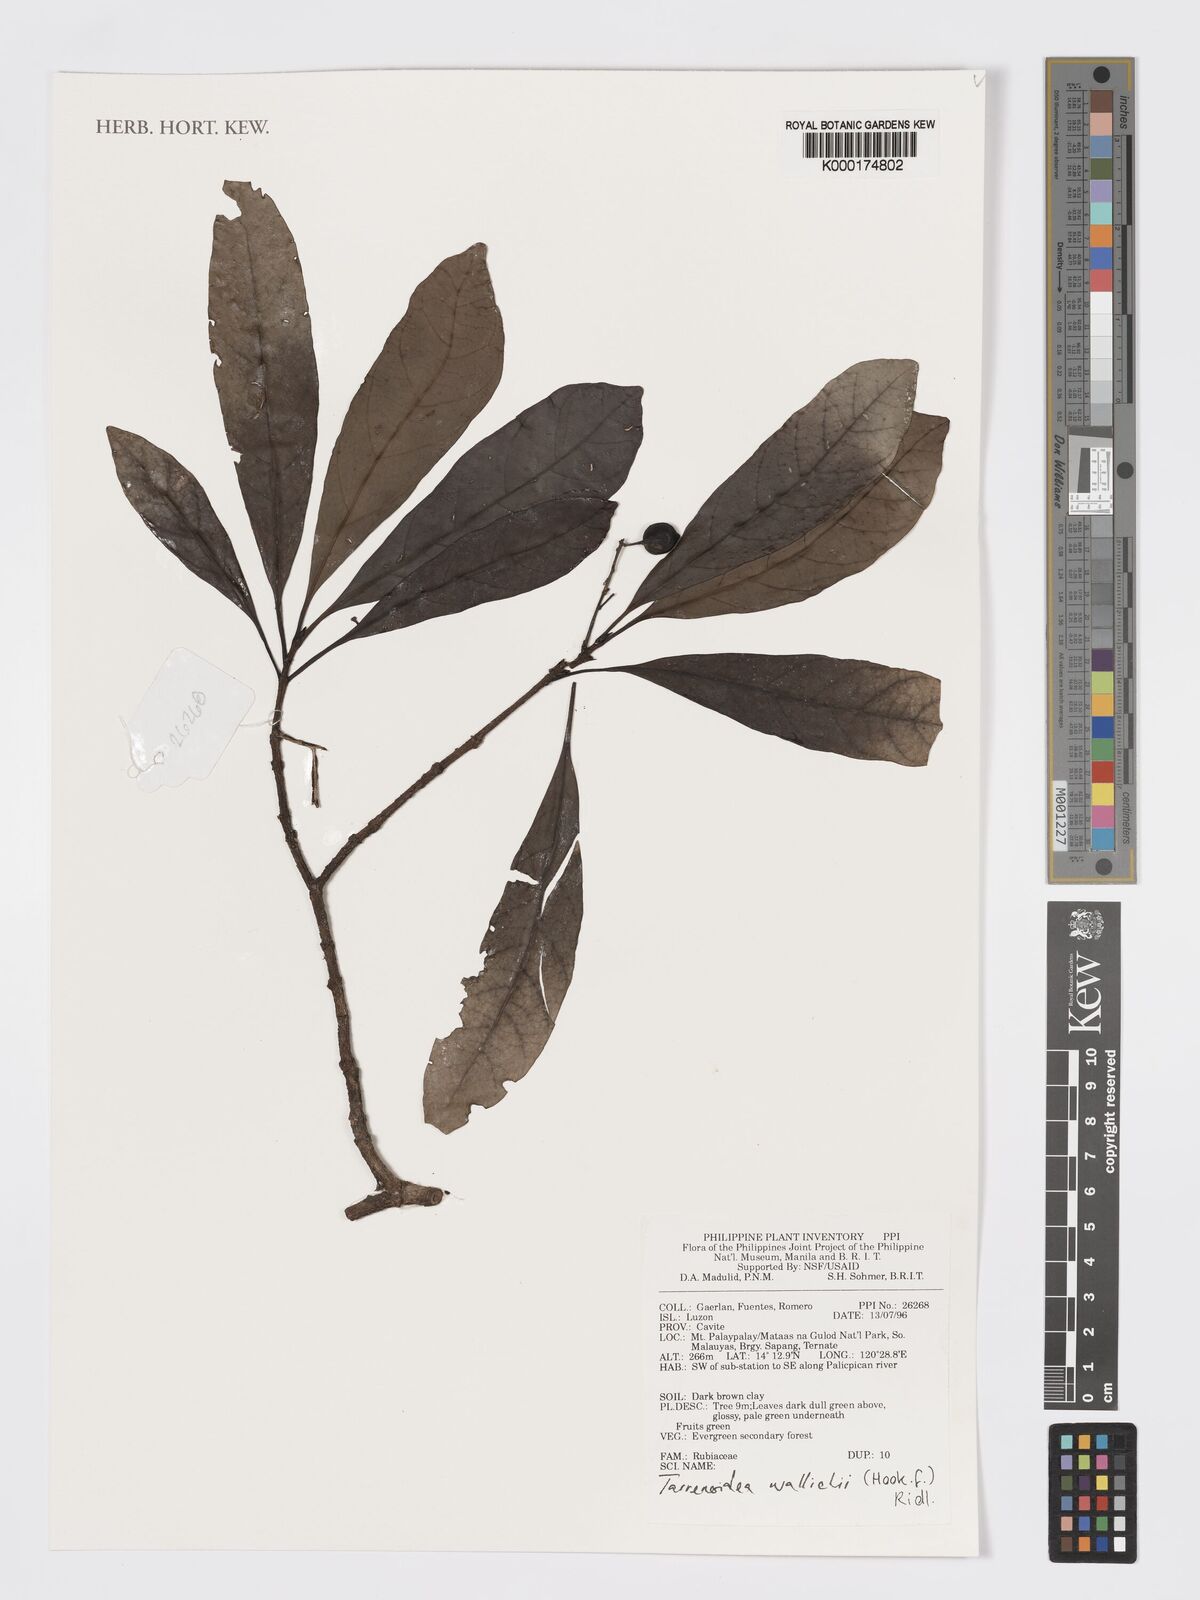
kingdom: Plantae
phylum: Tracheophyta
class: Magnoliopsida
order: Gentianales
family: Rubiaceae
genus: Tarennoidea
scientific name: Tarennoidea
